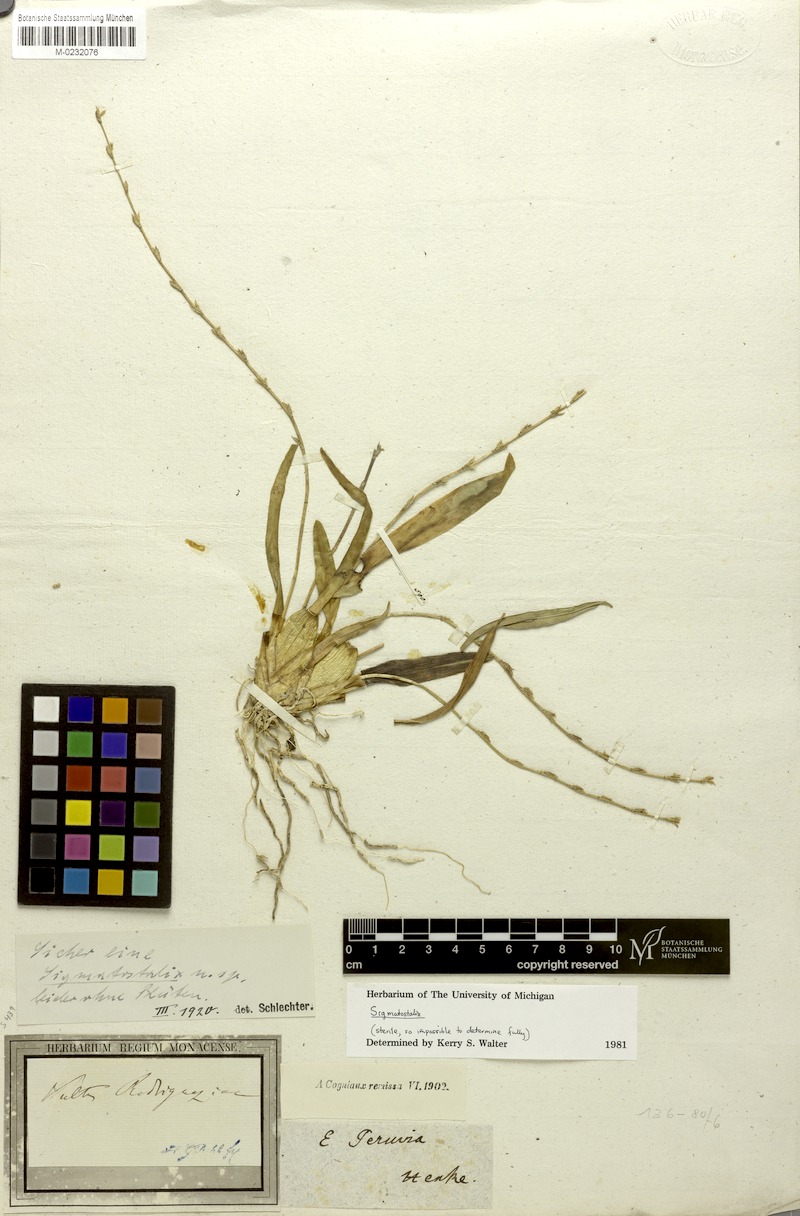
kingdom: Plantae
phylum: Tracheophyta
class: Liliopsida
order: Asparagales
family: Orchidaceae
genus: Oncidium
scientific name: Oncidium
